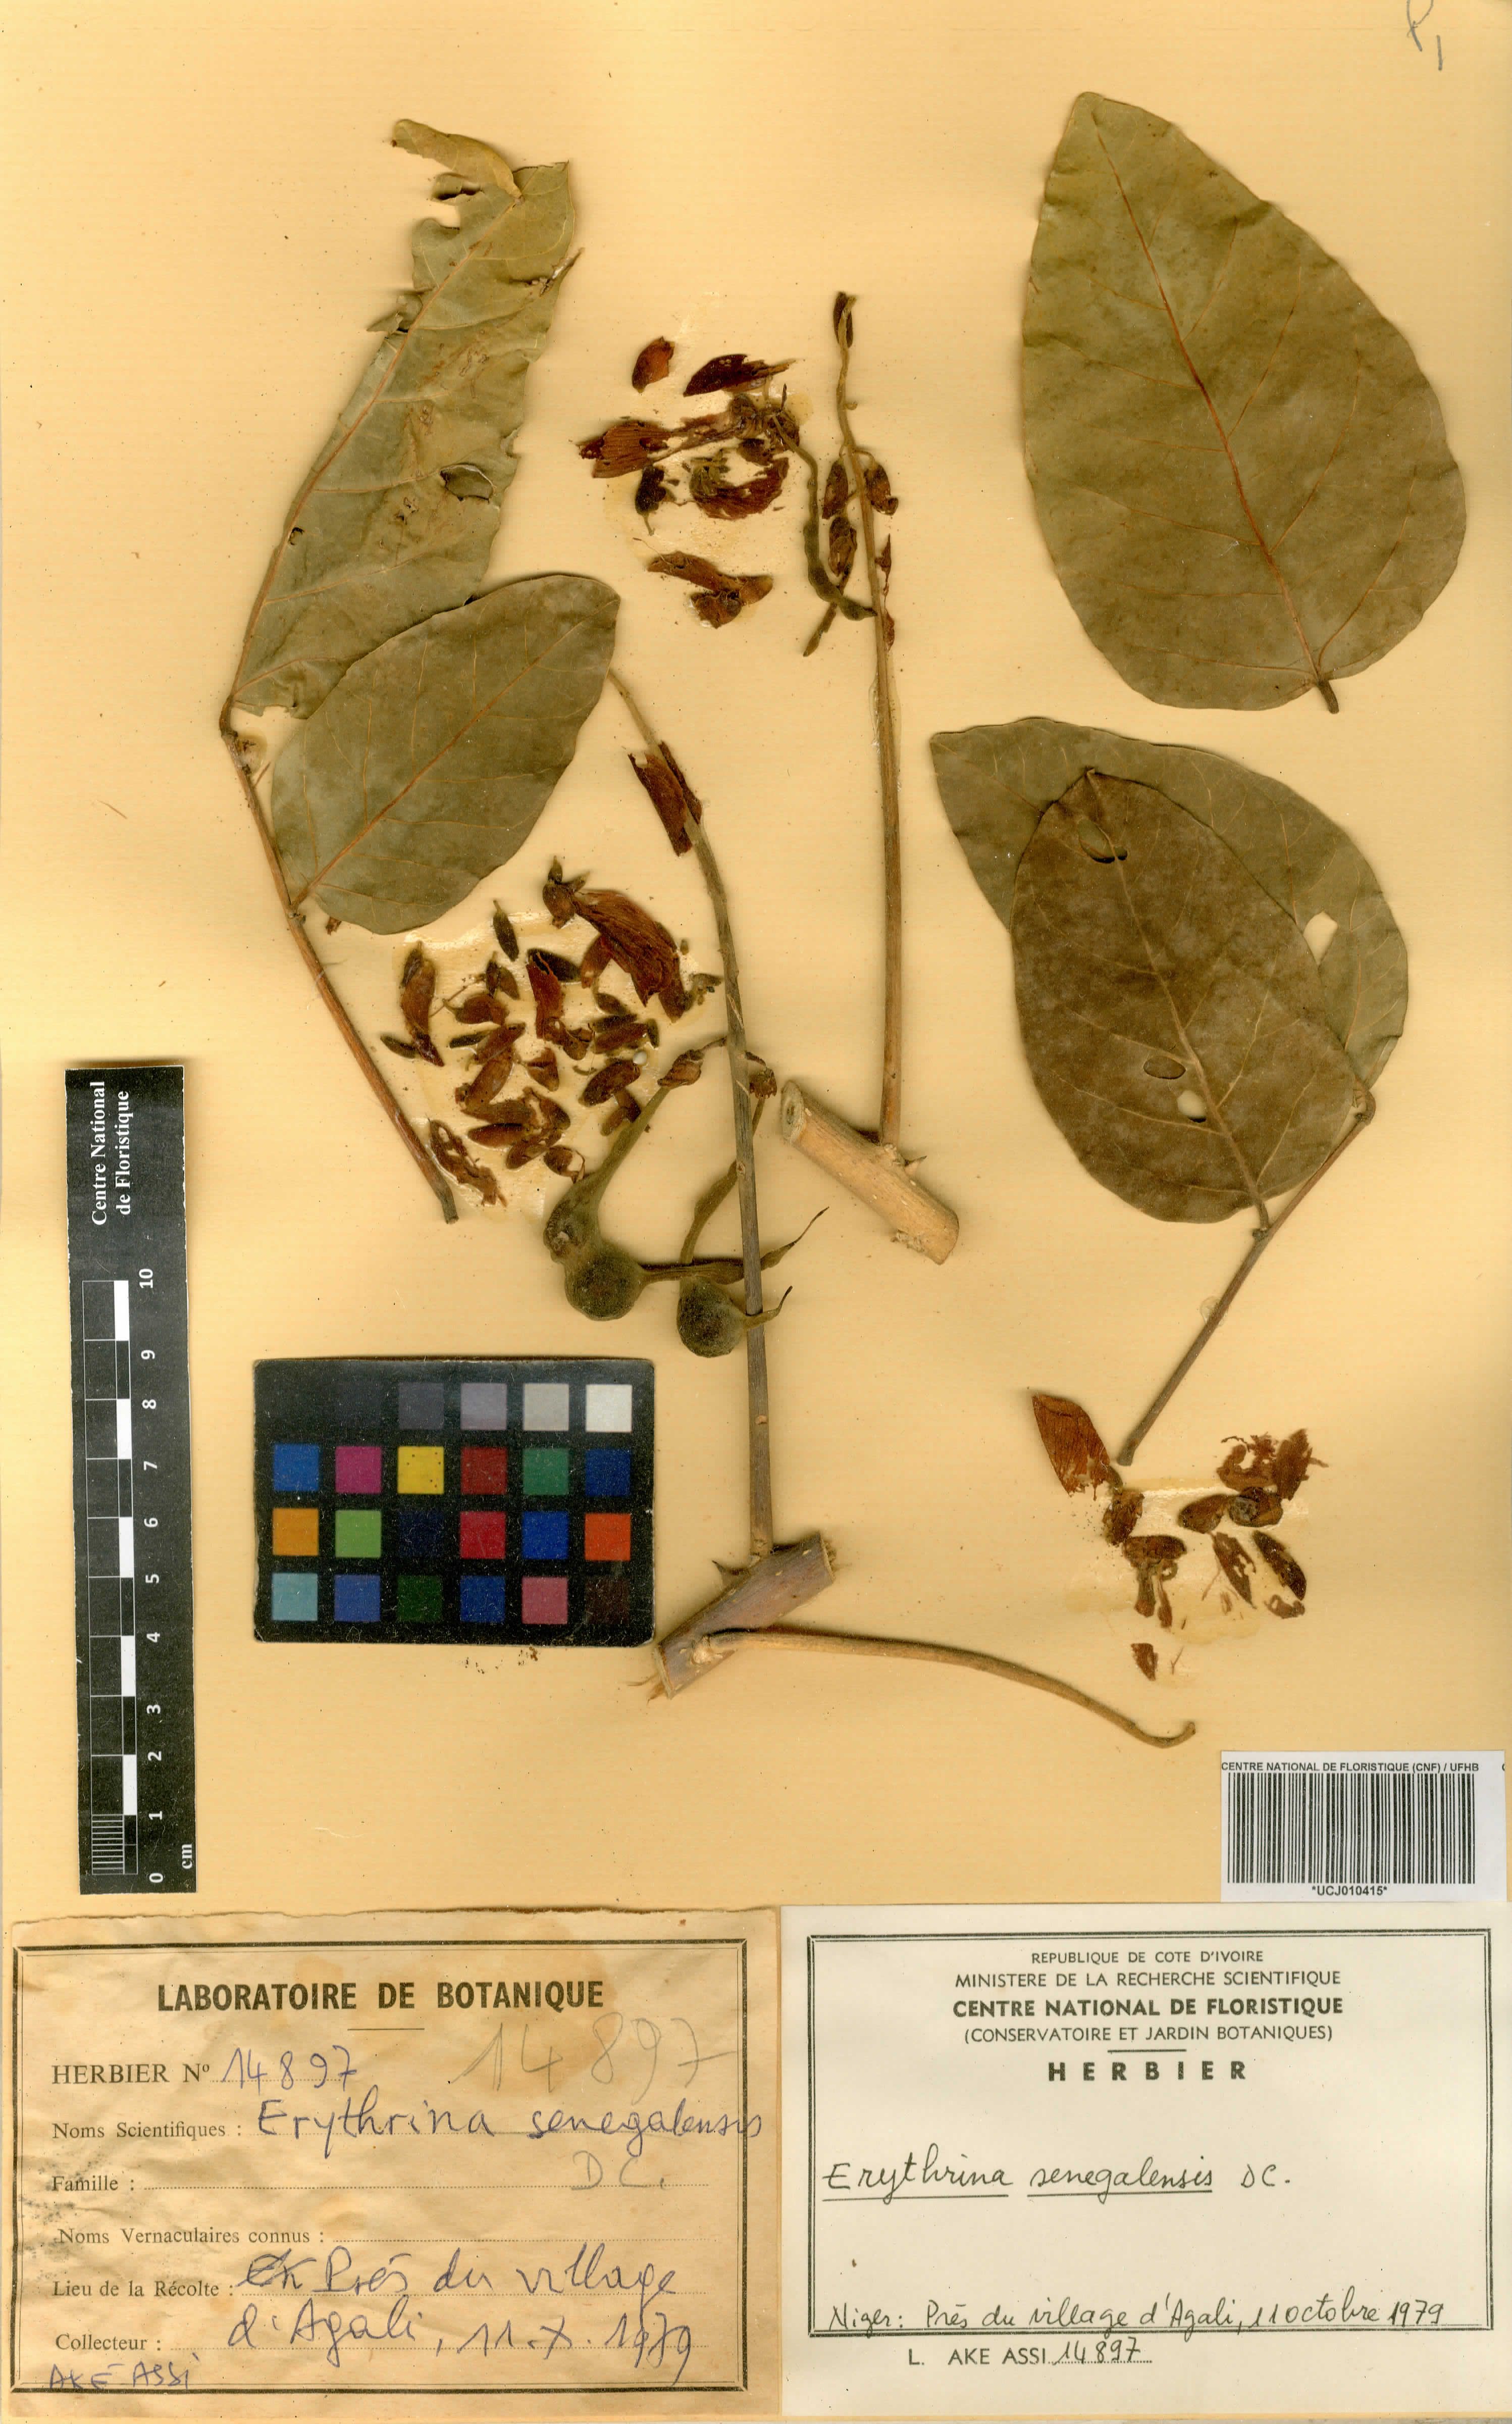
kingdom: Plantae
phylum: Tracheophyta
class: Magnoliopsida
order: Fabales
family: Fabaceae
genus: Erythrina
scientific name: Erythrina senegalensis
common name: Senegal coraltree
